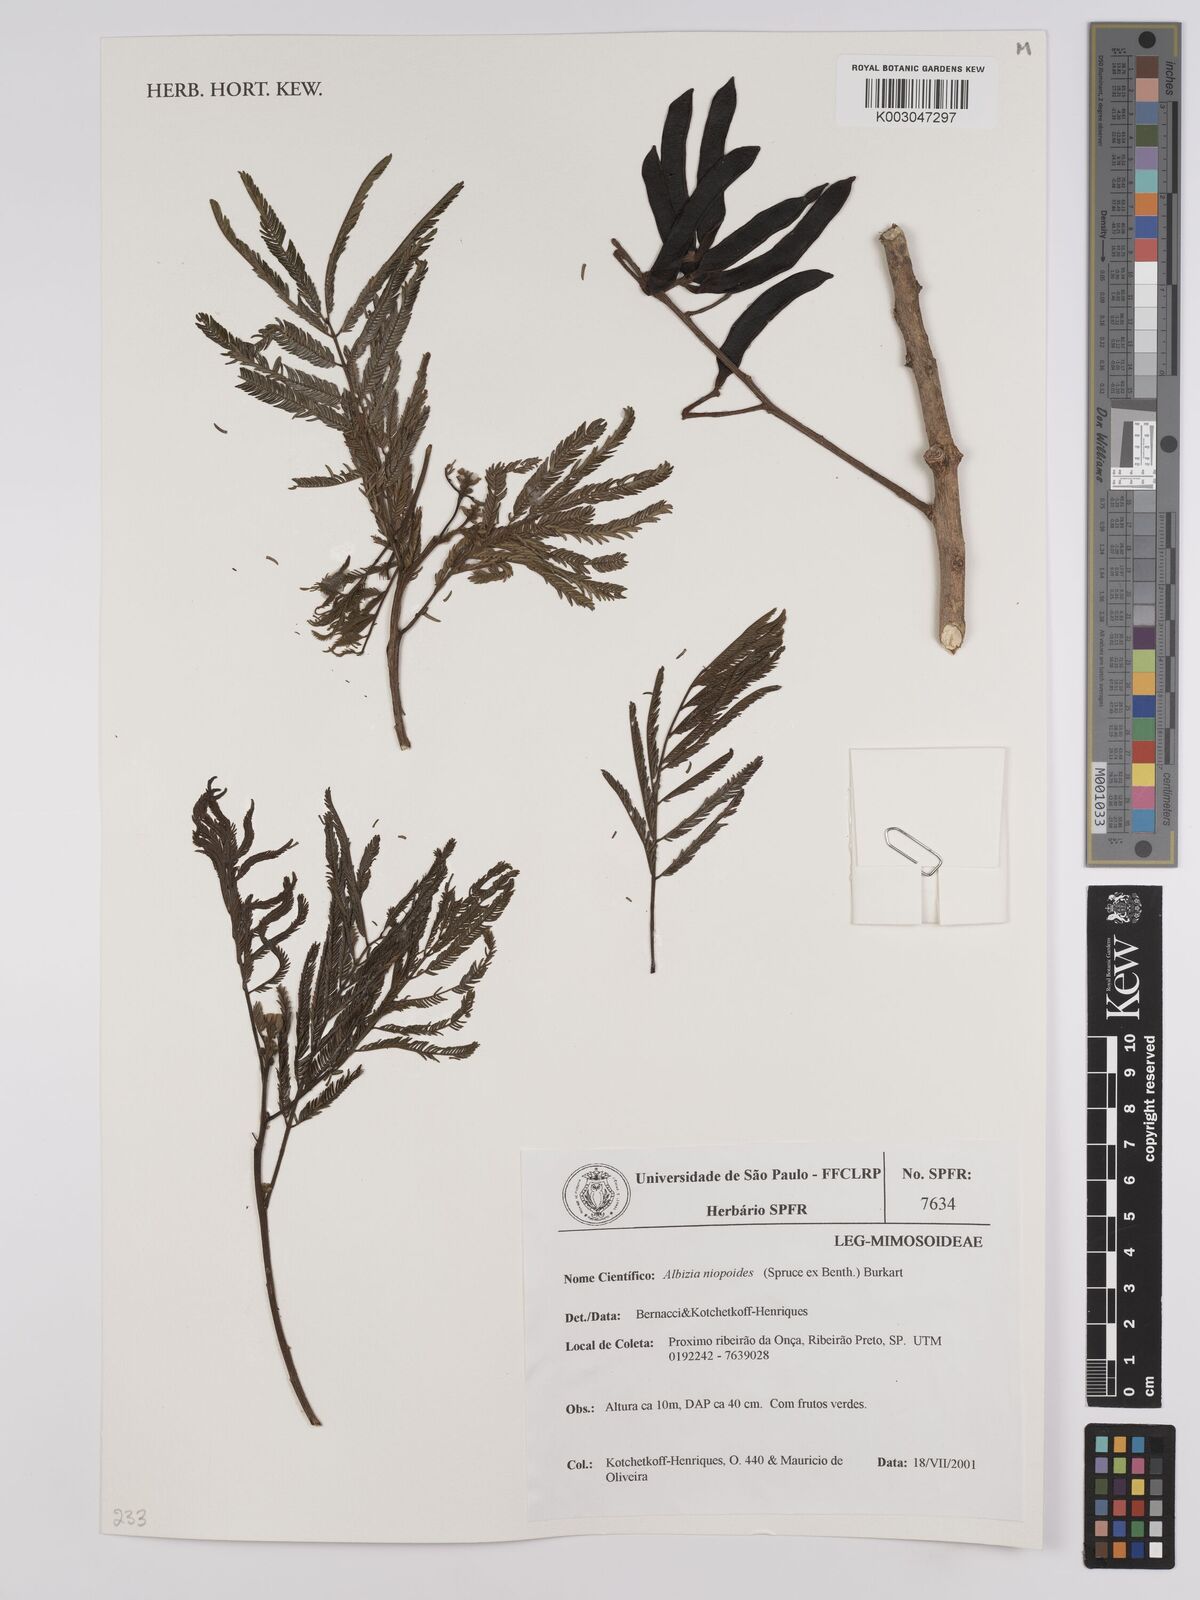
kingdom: Plantae
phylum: Tracheophyta
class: Magnoliopsida
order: Fabales
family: Fabaceae
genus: Albizia
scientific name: Albizia niopoides
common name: Silk tree
